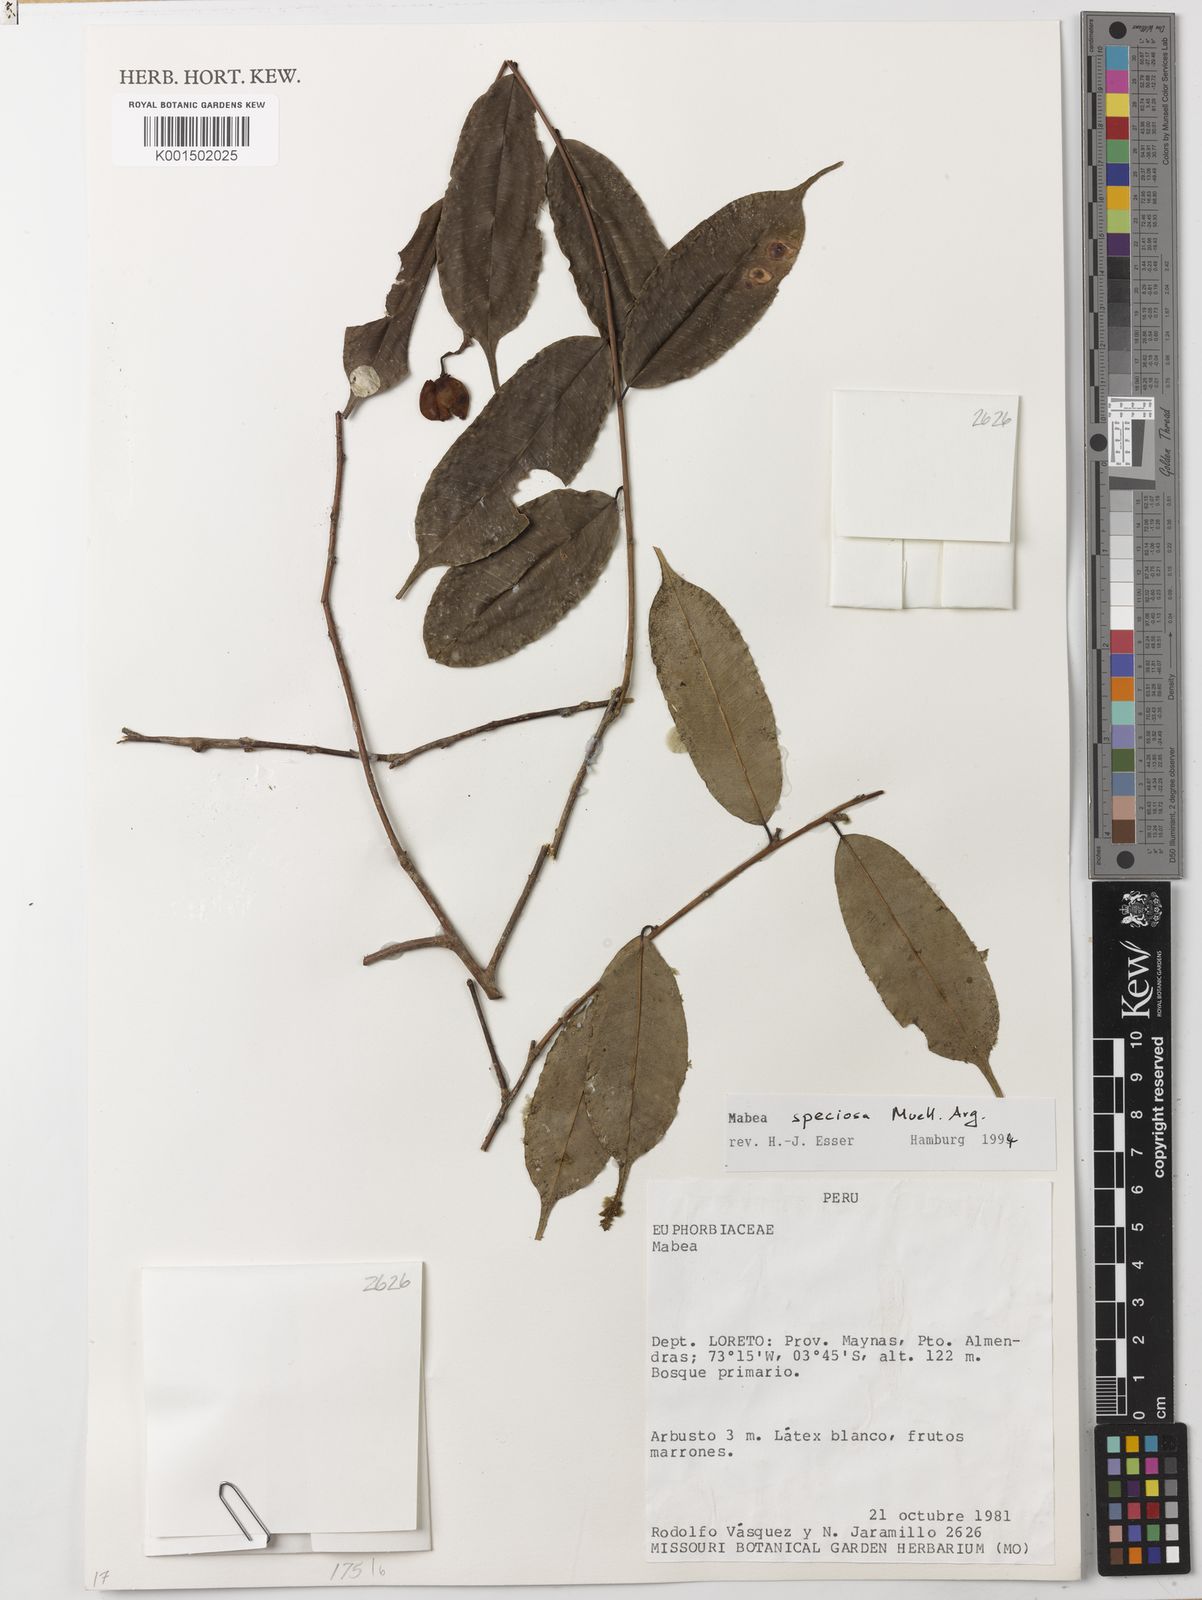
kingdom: Plantae
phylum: Tracheophyta
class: Magnoliopsida
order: Malpighiales
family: Euphorbiaceae
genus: Mabea
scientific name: Mabea speciosa
